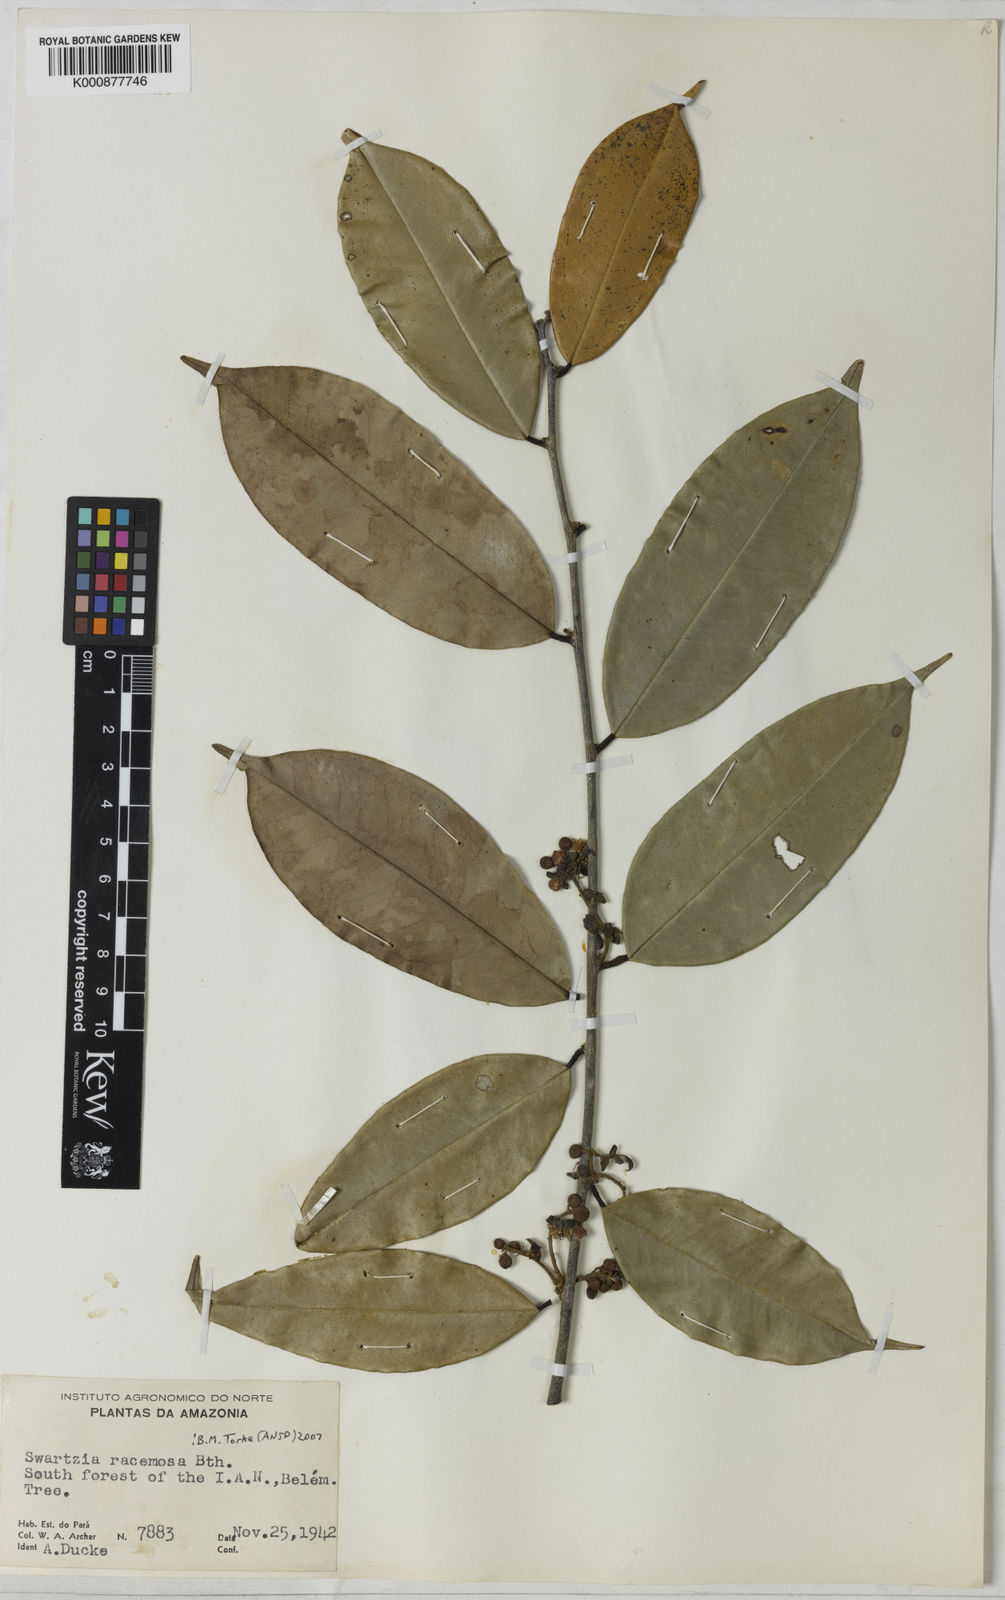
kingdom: Plantae
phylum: Tracheophyta
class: Magnoliopsida
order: Fabales
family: Fabaceae
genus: Swartzia
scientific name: Swartzia racemosa
